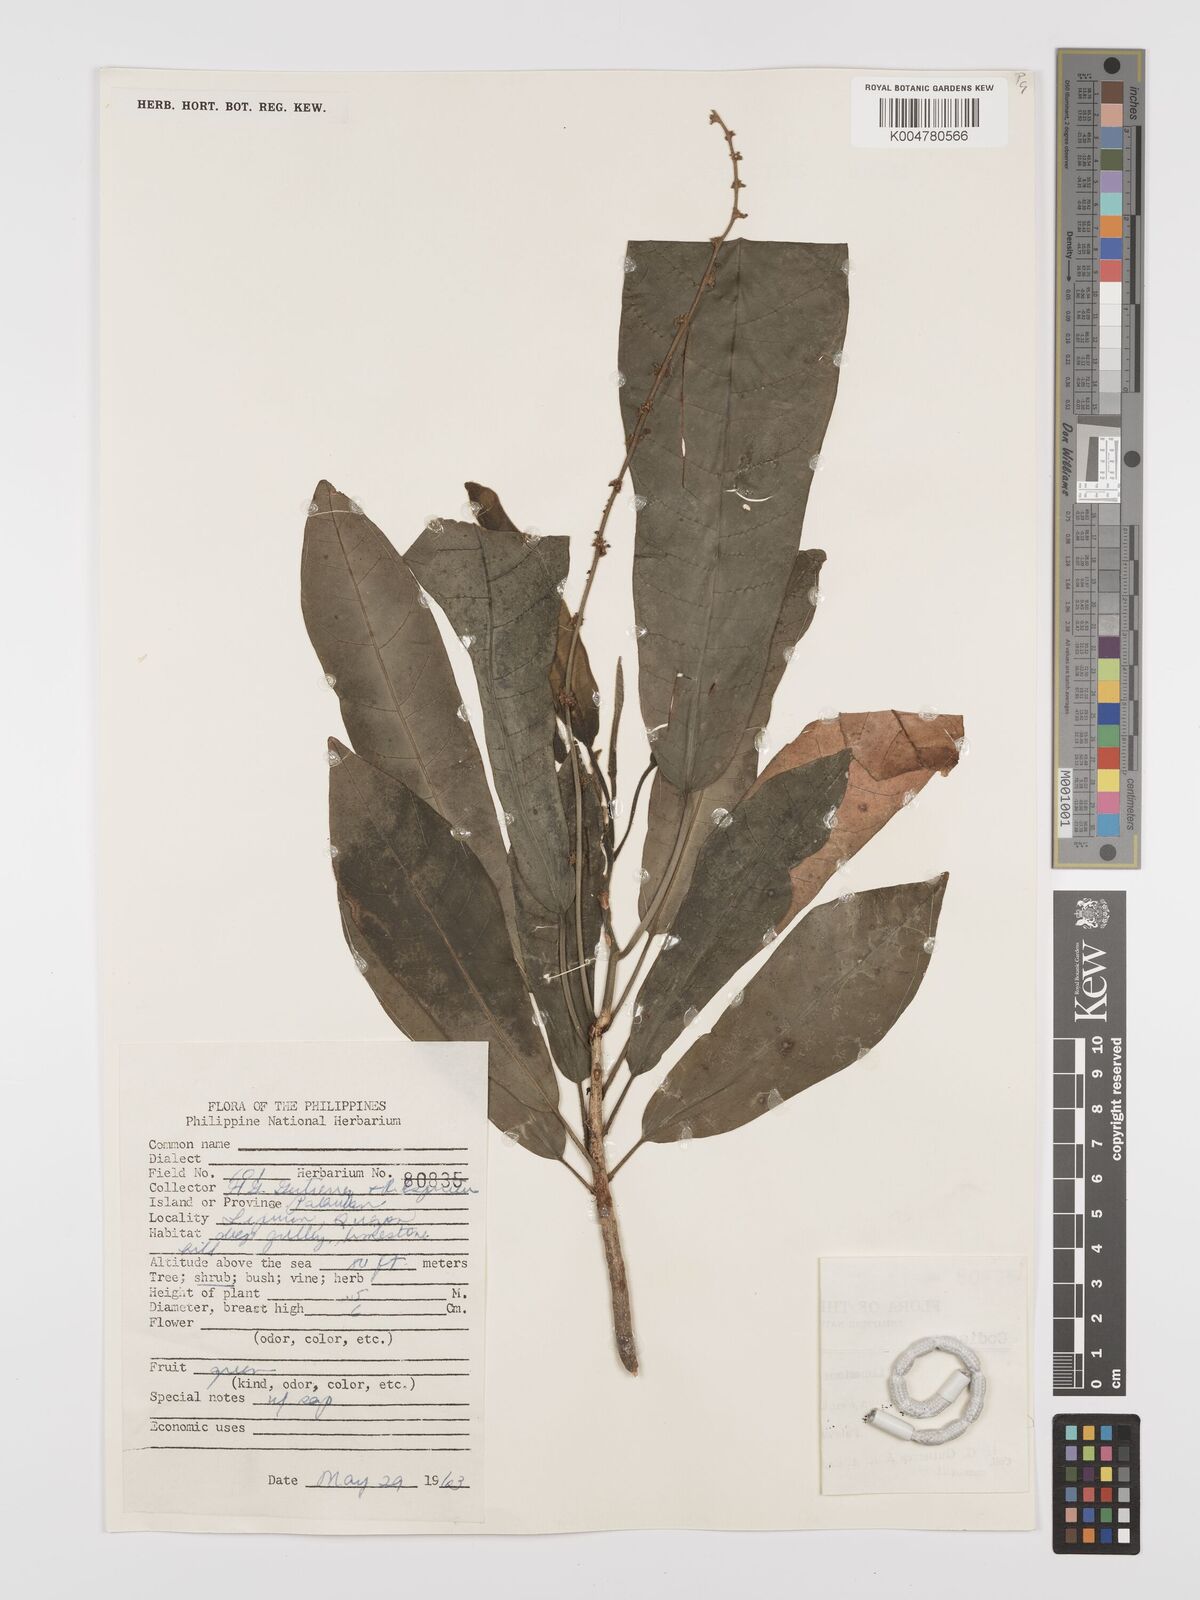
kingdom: Plantae
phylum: Tracheophyta
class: Magnoliopsida
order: Malpighiales
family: Euphorbiaceae
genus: Codiaeum
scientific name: Codiaeum
